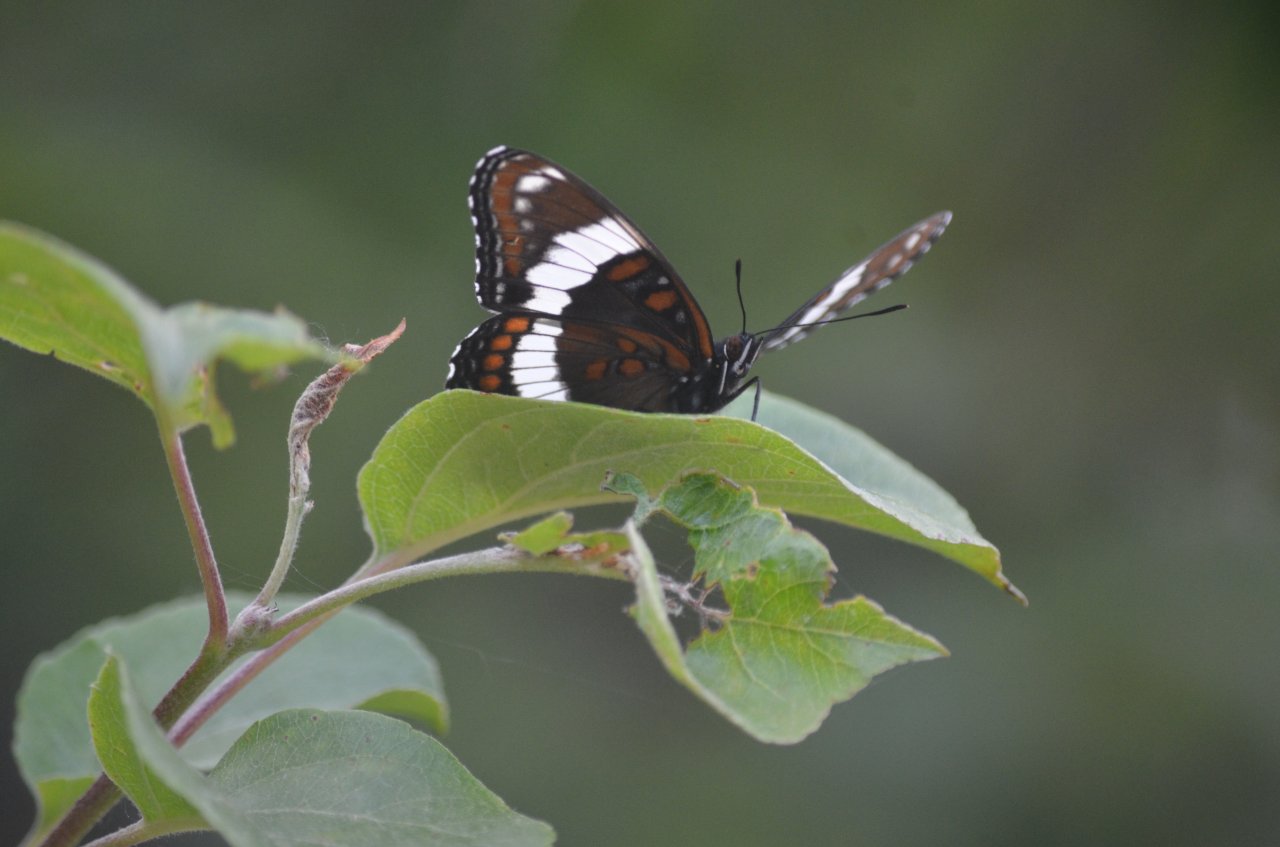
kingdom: Animalia
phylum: Arthropoda
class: Insecta
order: Lepidoptera
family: Nymphalidae
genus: Limenitis
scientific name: Limenitis arthemis
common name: Red-spotted Admiral
